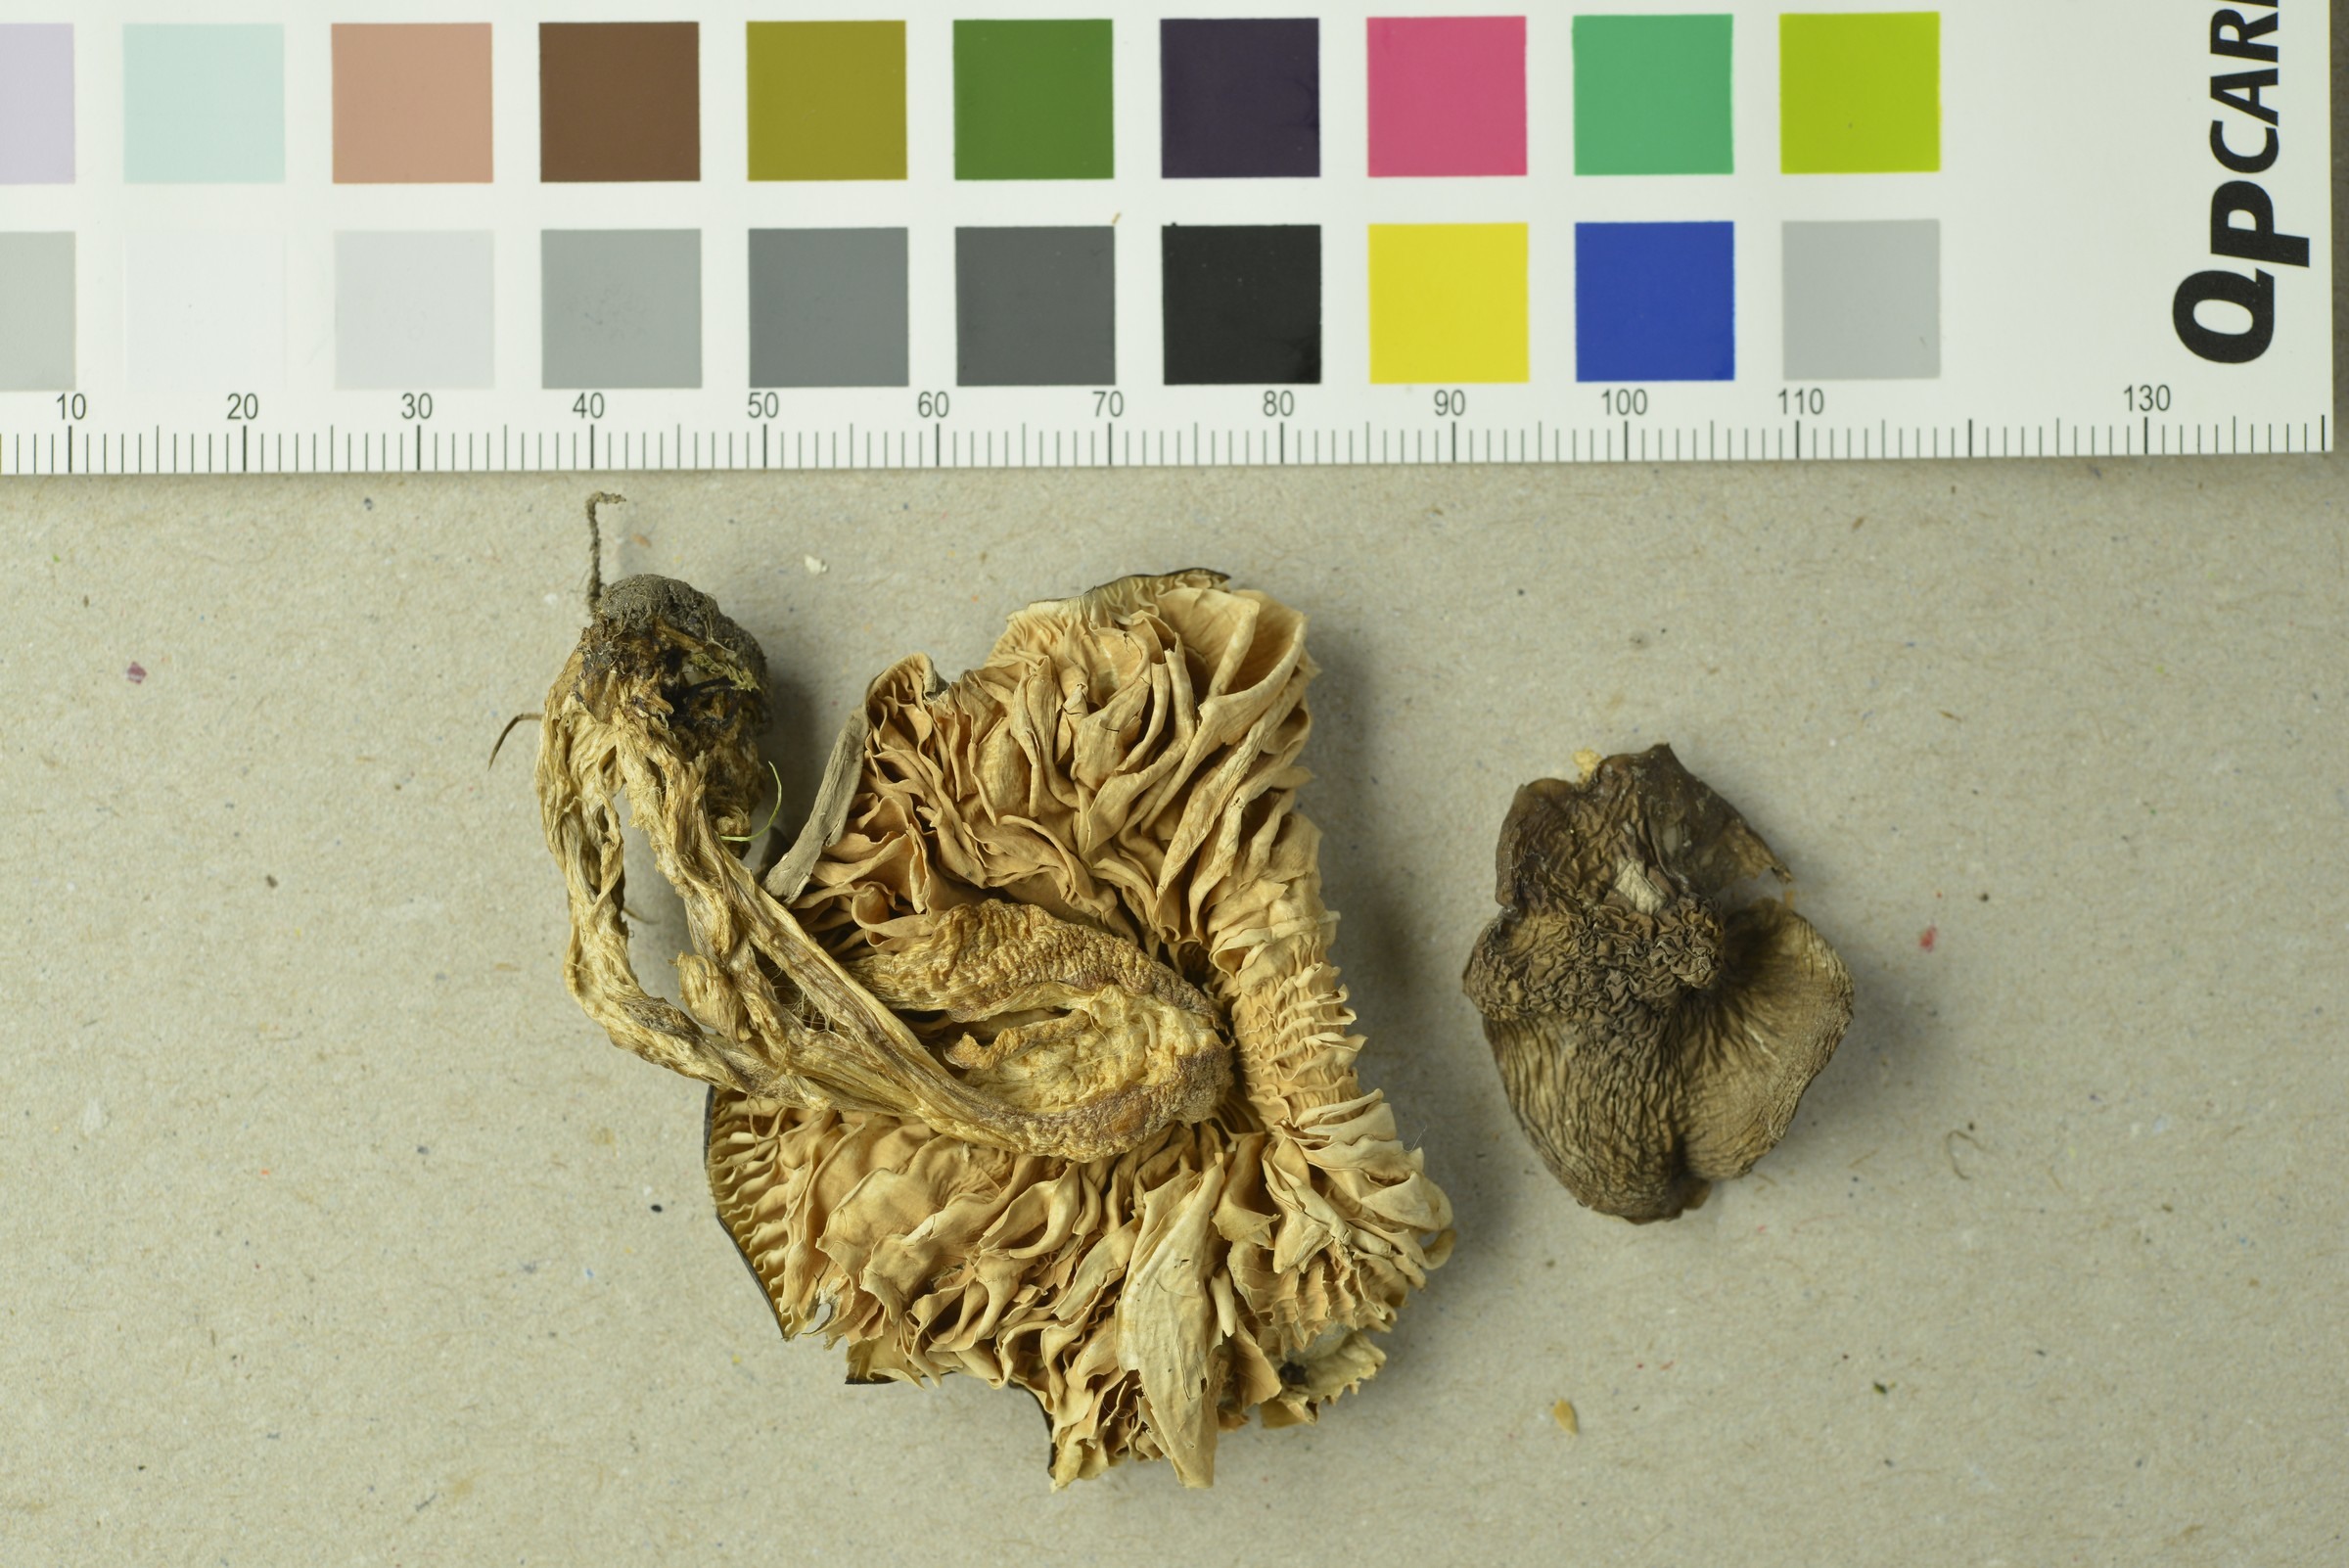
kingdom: Fungi
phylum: Basidiomycota
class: Agaricomycetes
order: Agaricales
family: Entolomataceae
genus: Entoloma
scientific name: Entoloma bloxamii
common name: Big blue pinkgill
